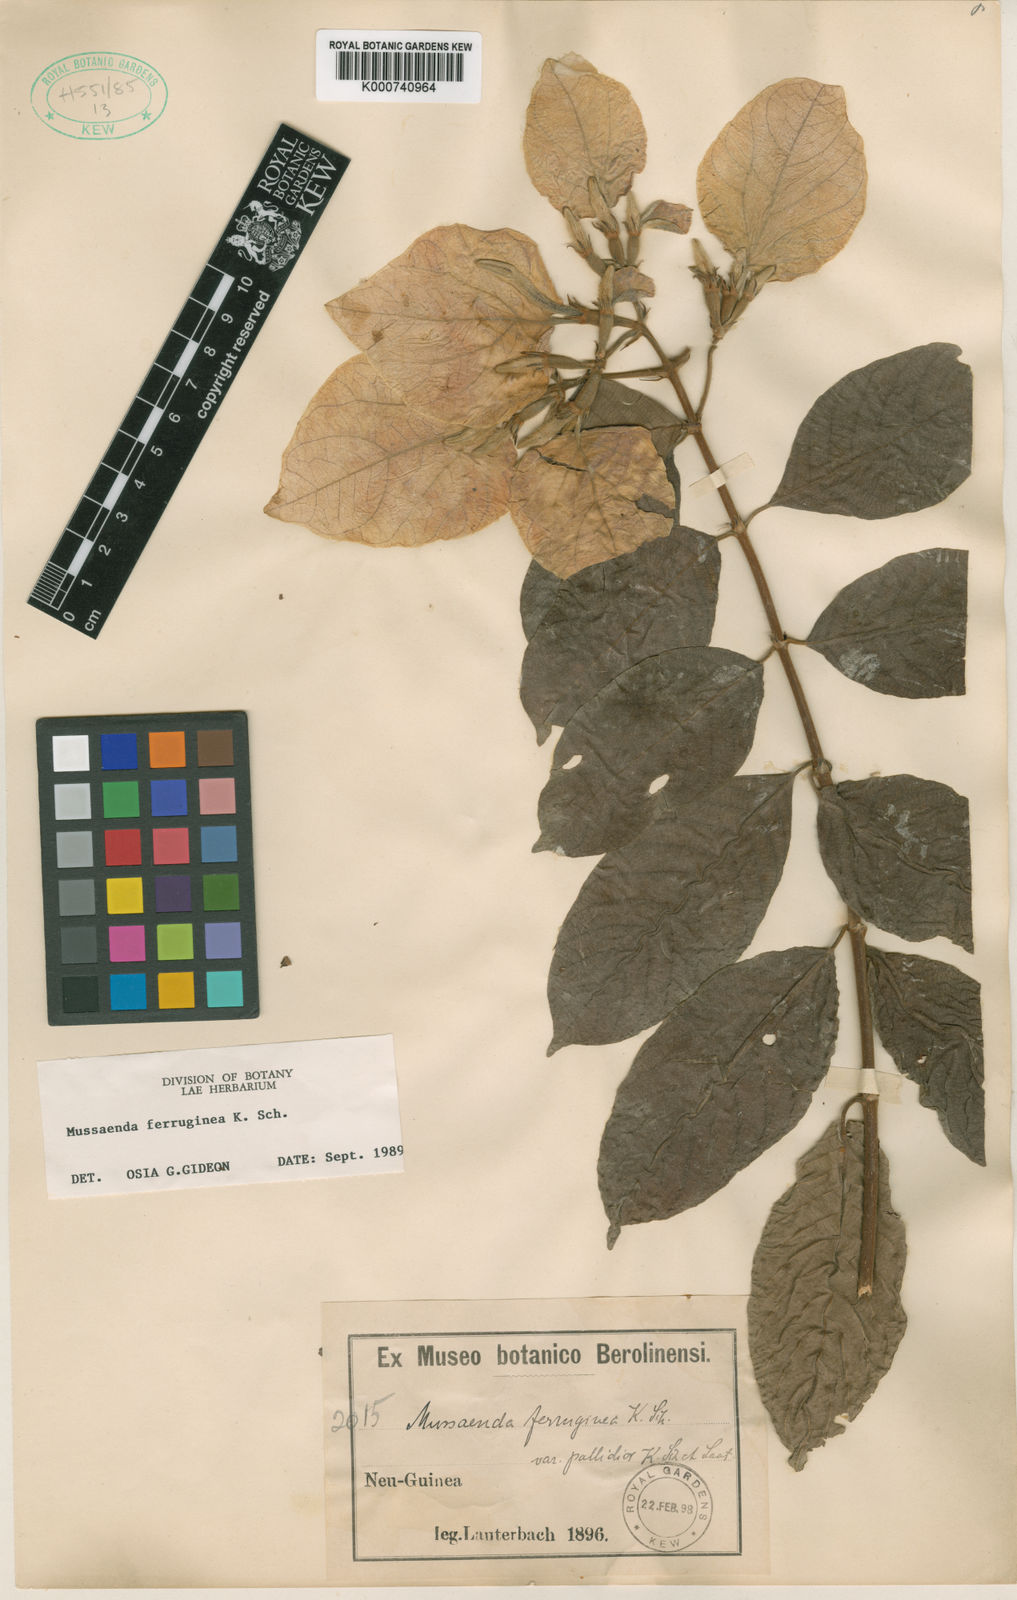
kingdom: Plantae
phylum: Tracheophyta
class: Magnoliopsida
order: Gentianales
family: Rubiaceae
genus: Mussaenda
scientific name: Mussaenda ferruginea
